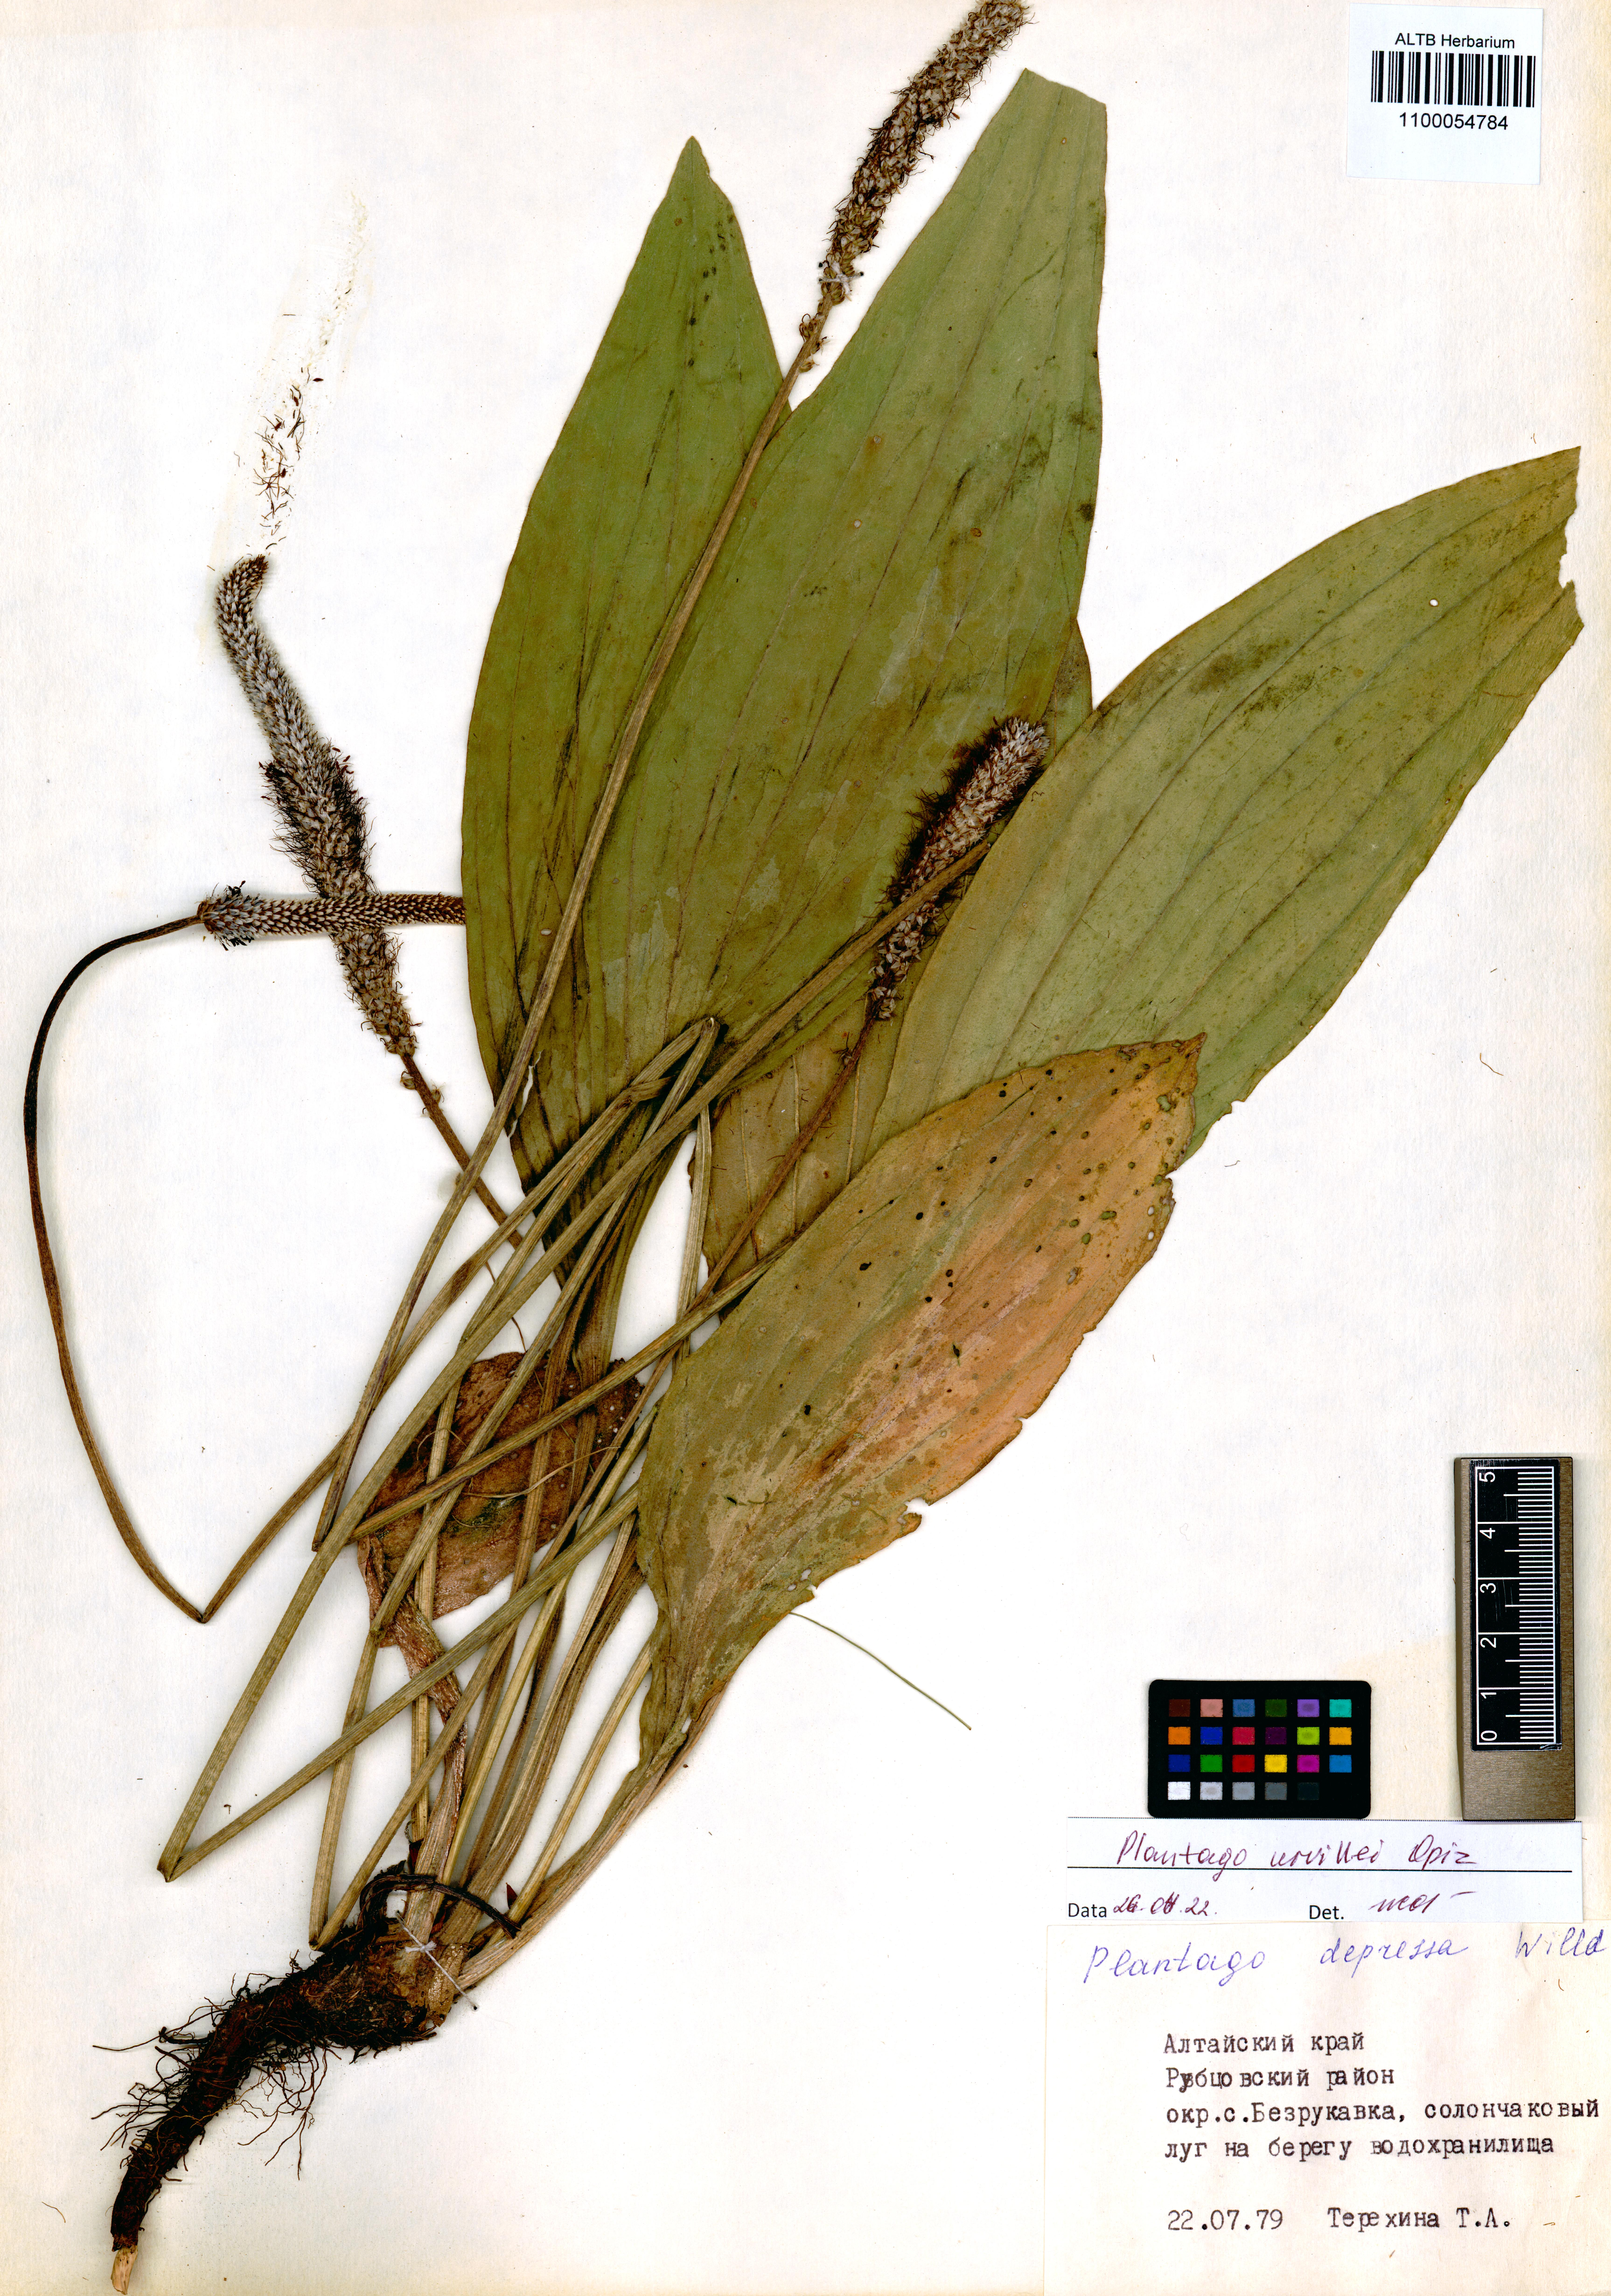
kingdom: Plantae
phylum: Tracheophyta
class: Magnoliopsida
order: Lamiales
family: Plantaginaceae
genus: Plantago
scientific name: Plantago urvillei
